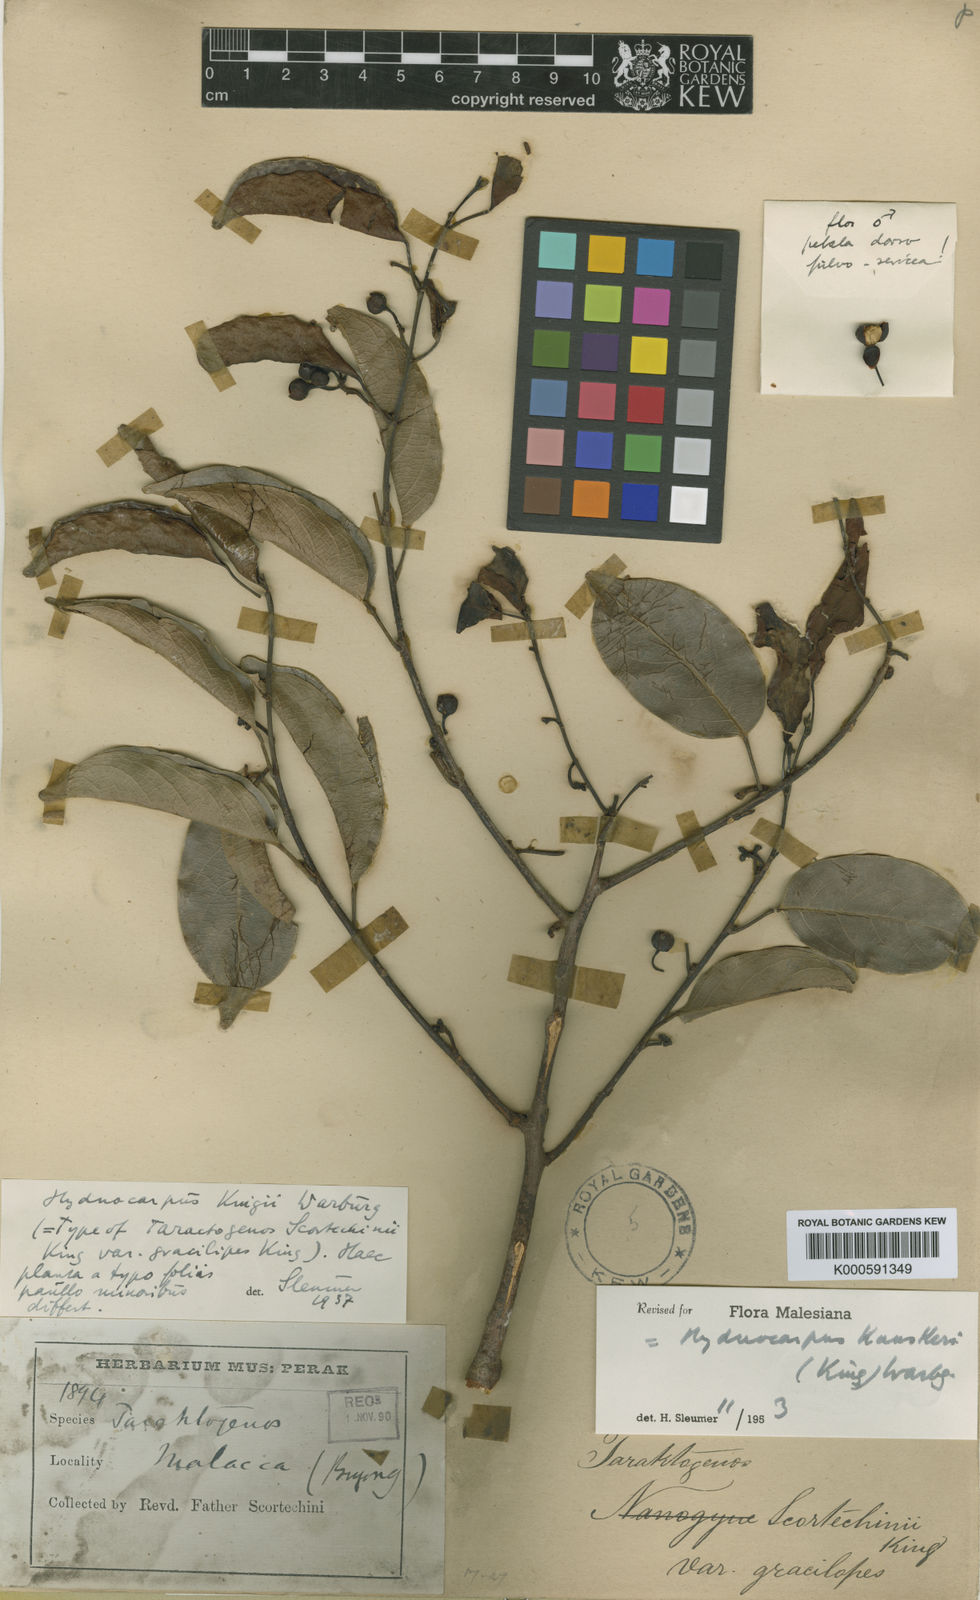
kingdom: Plantae
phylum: Tracheophyta
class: Magnoliopsida
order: Malpighiales
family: Achariaceae
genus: Hydnocarpus
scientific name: Hydnocarpus kunstleri
